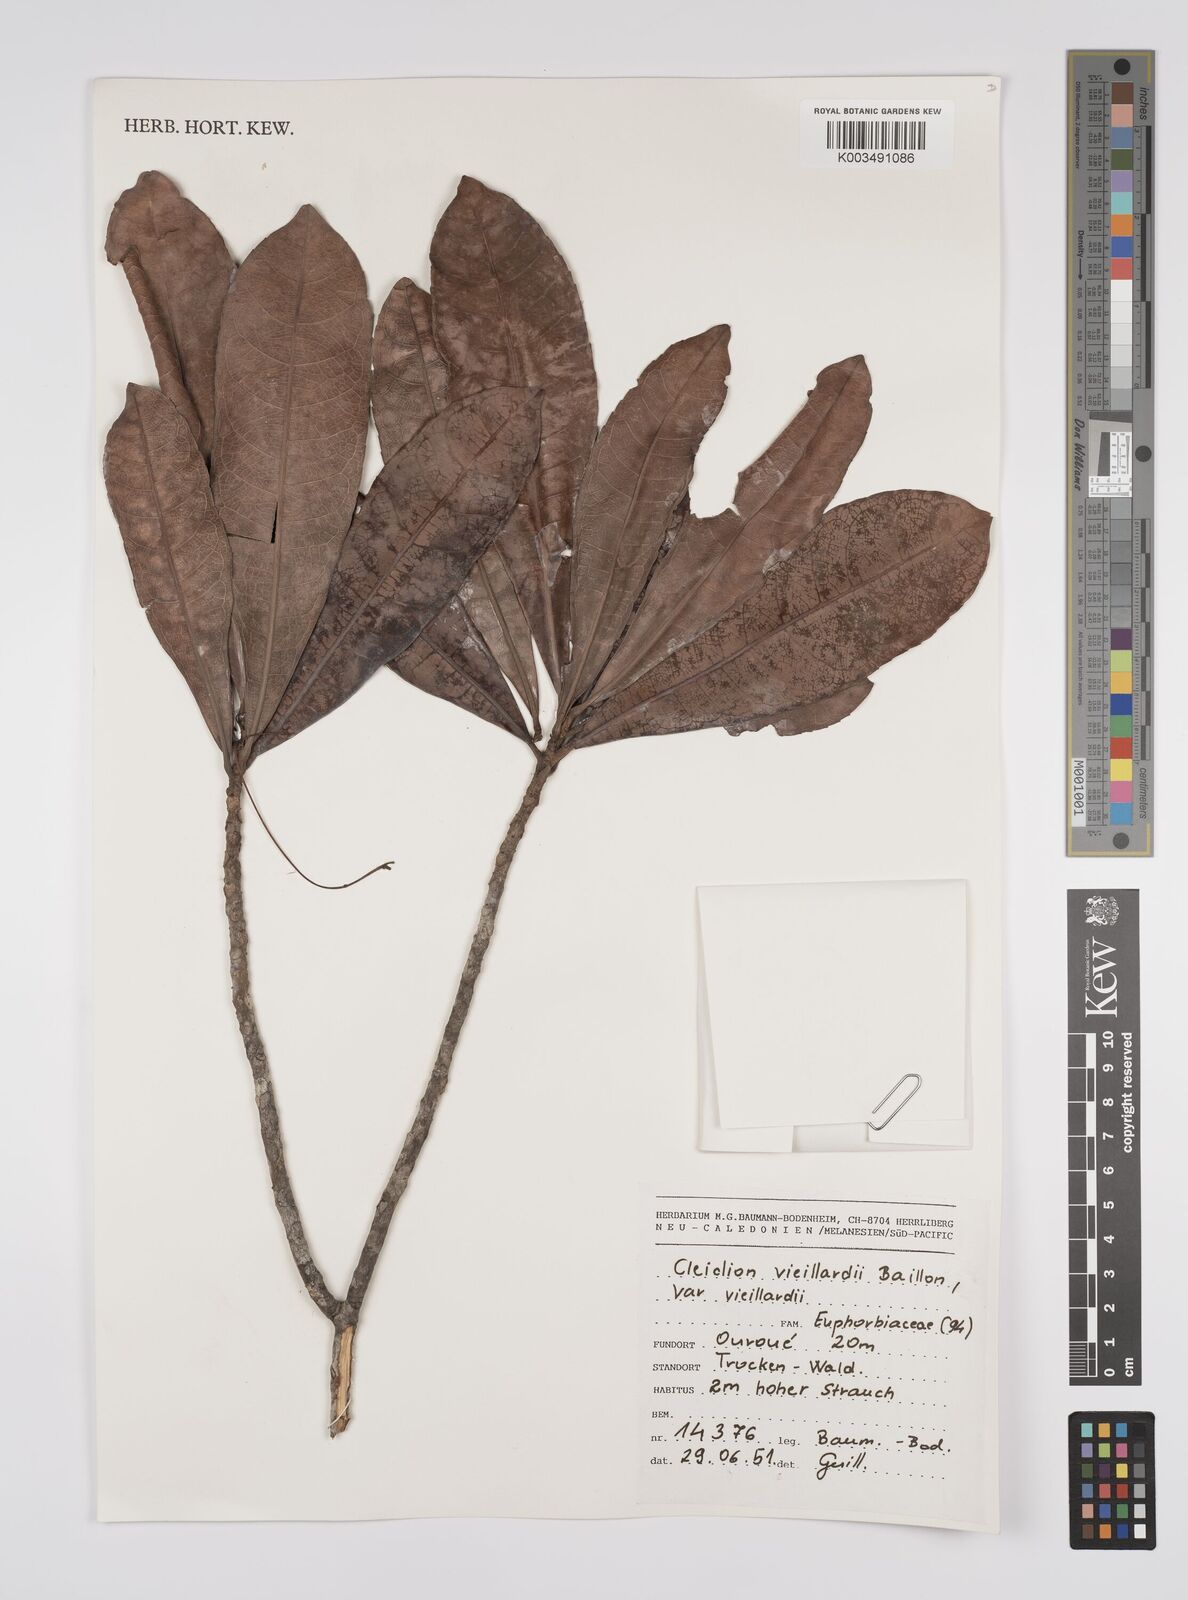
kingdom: Plantae
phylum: Tracheophyta
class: Magnoliopsida
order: Malpighiales
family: Euphorbiaceae
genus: Cleidion
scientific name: Cleidion vieillardii
